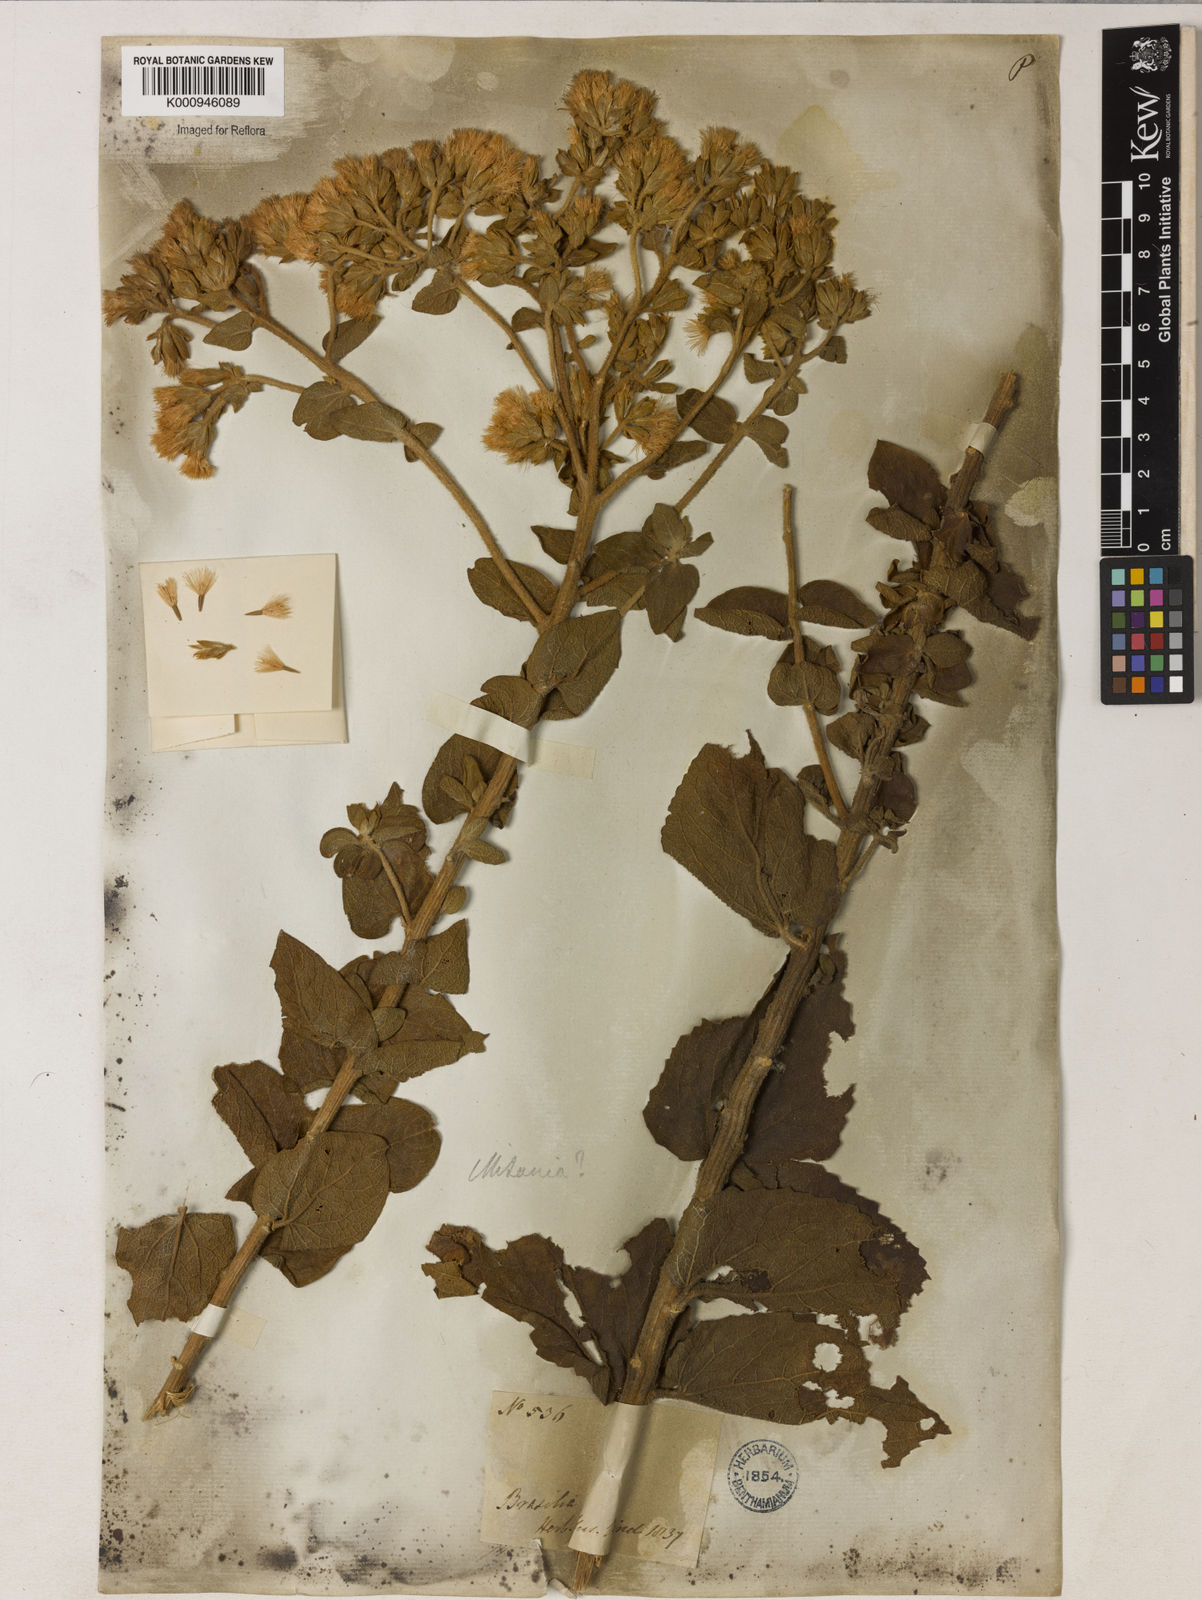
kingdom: Plantae
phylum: Tracheophyta
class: Magnoliopsida
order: Asterales
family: Asteraceae
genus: Mikania
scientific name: Mikania pohlii
